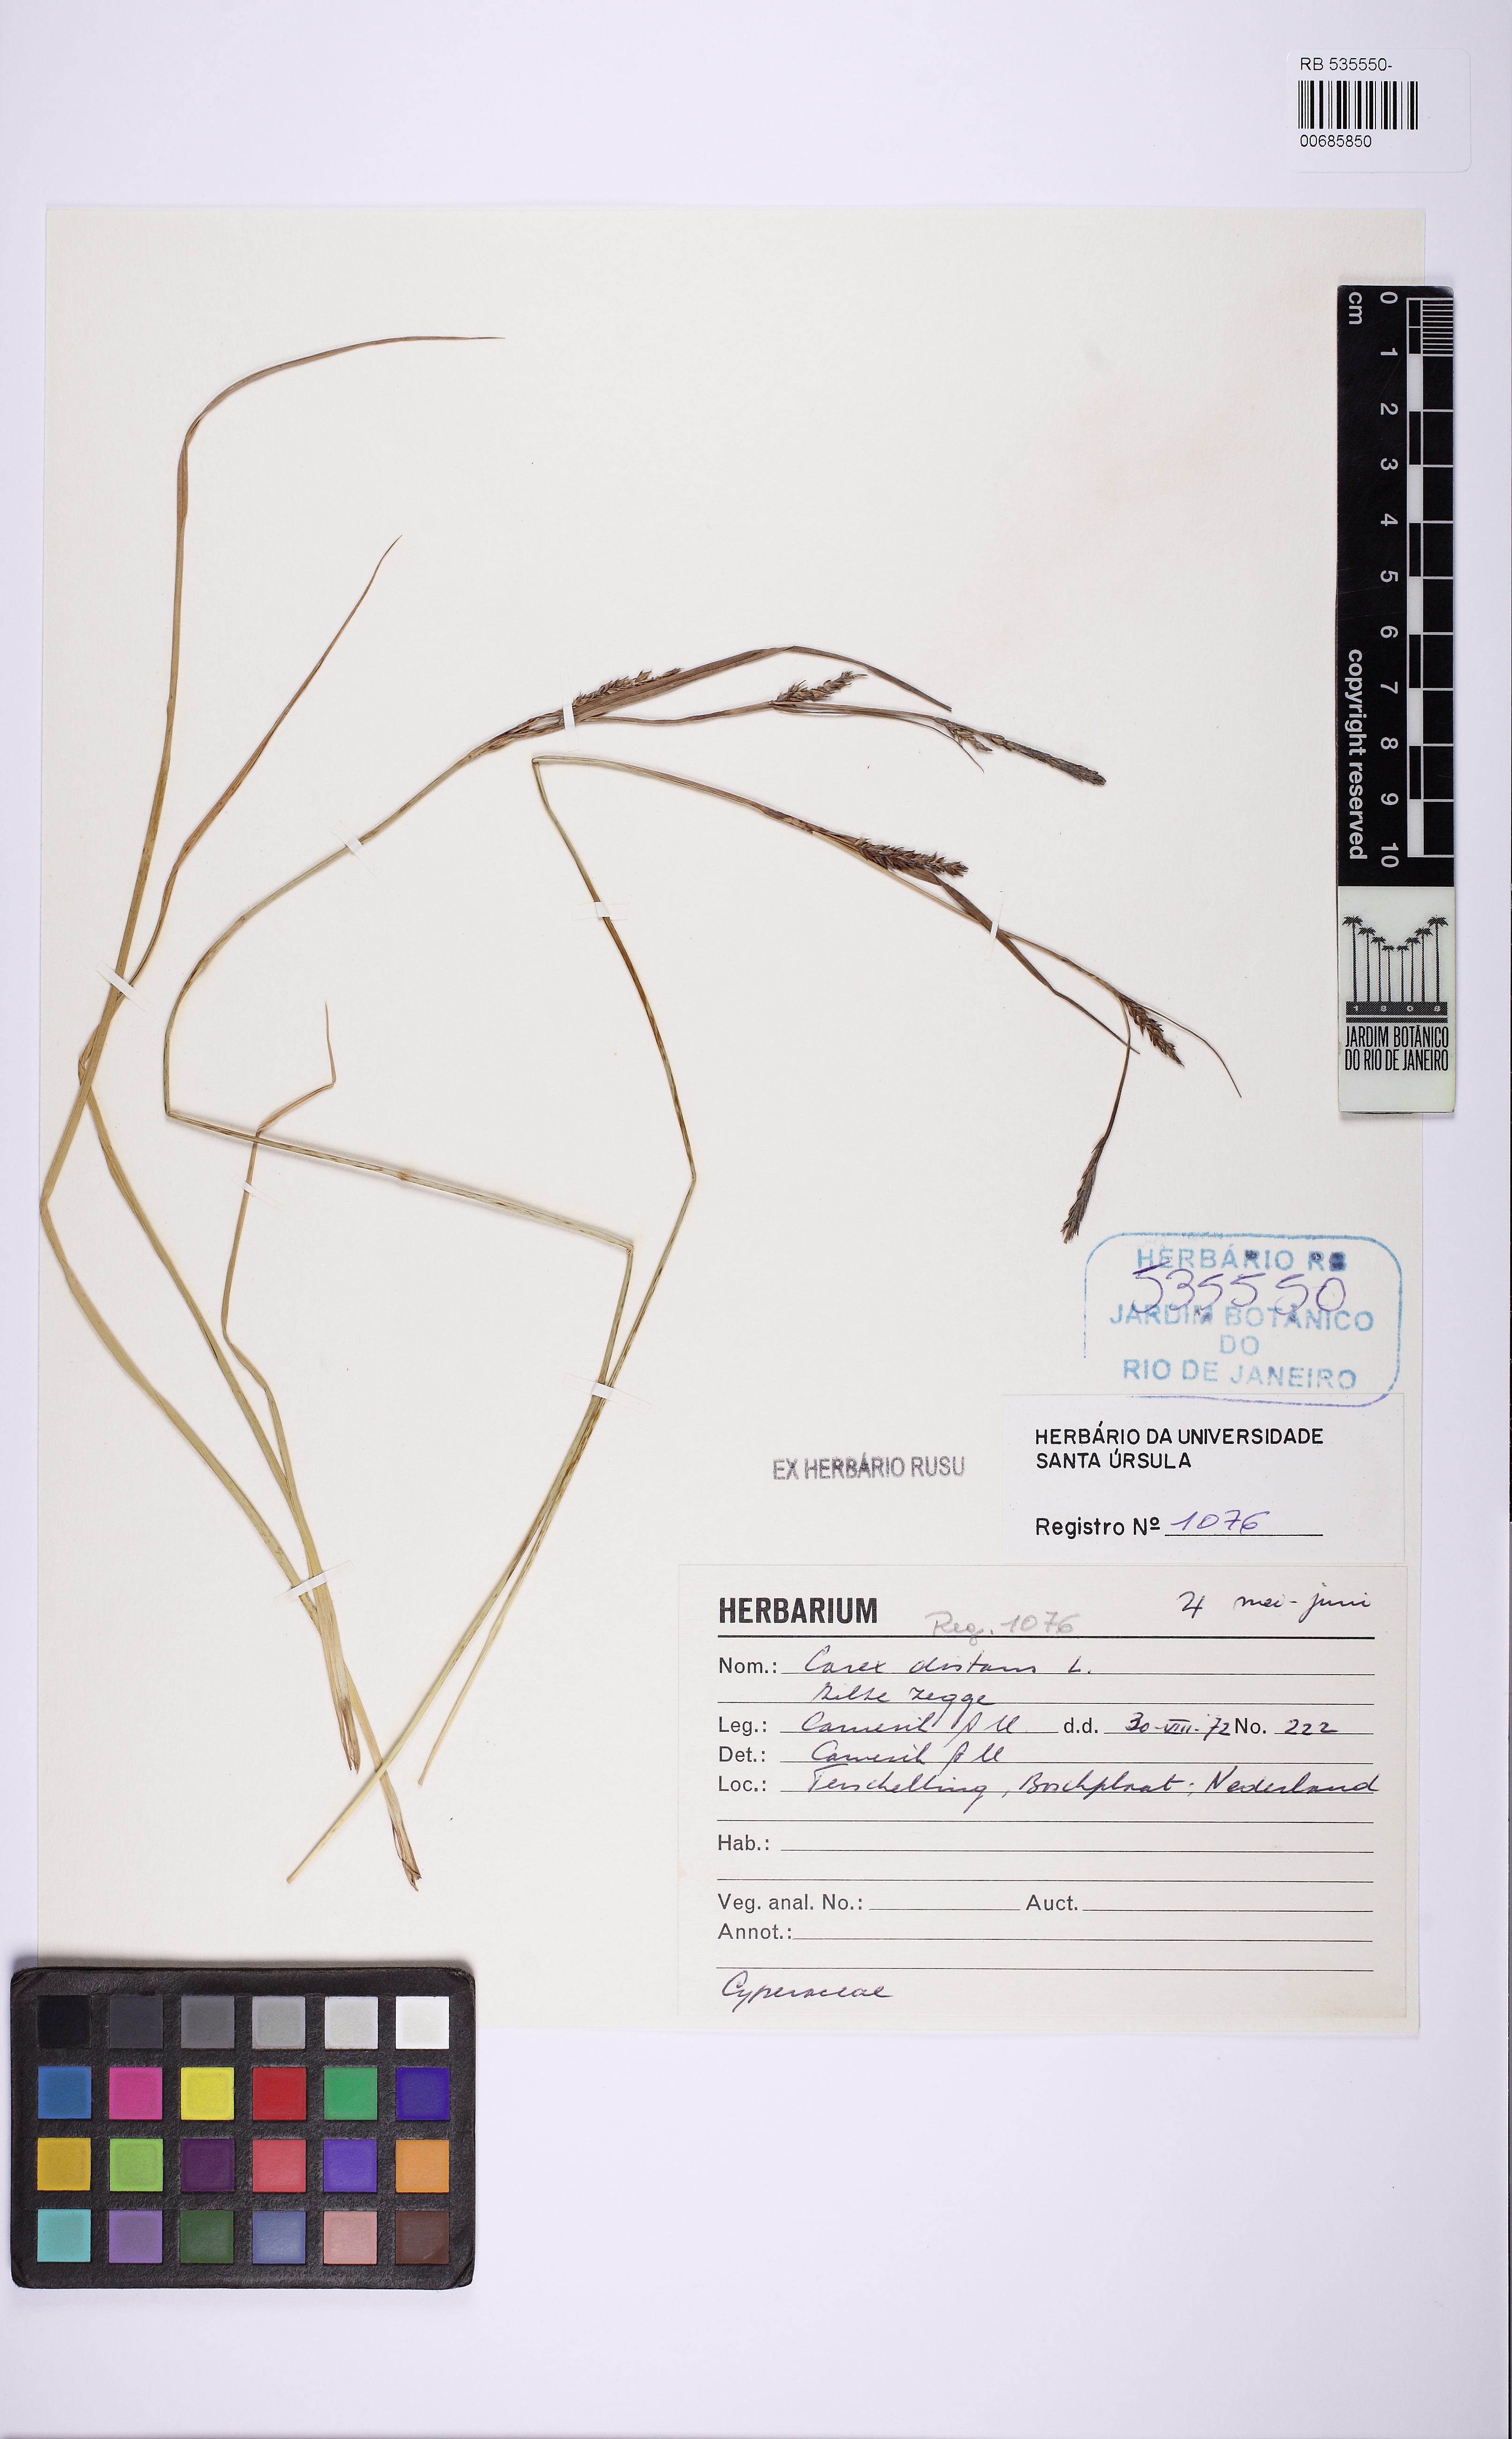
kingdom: Plantae
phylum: Tracheophyta
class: Liliopsida
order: Poales
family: Cyperaceae
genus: Carex
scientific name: Carex distans
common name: Distant sedge
